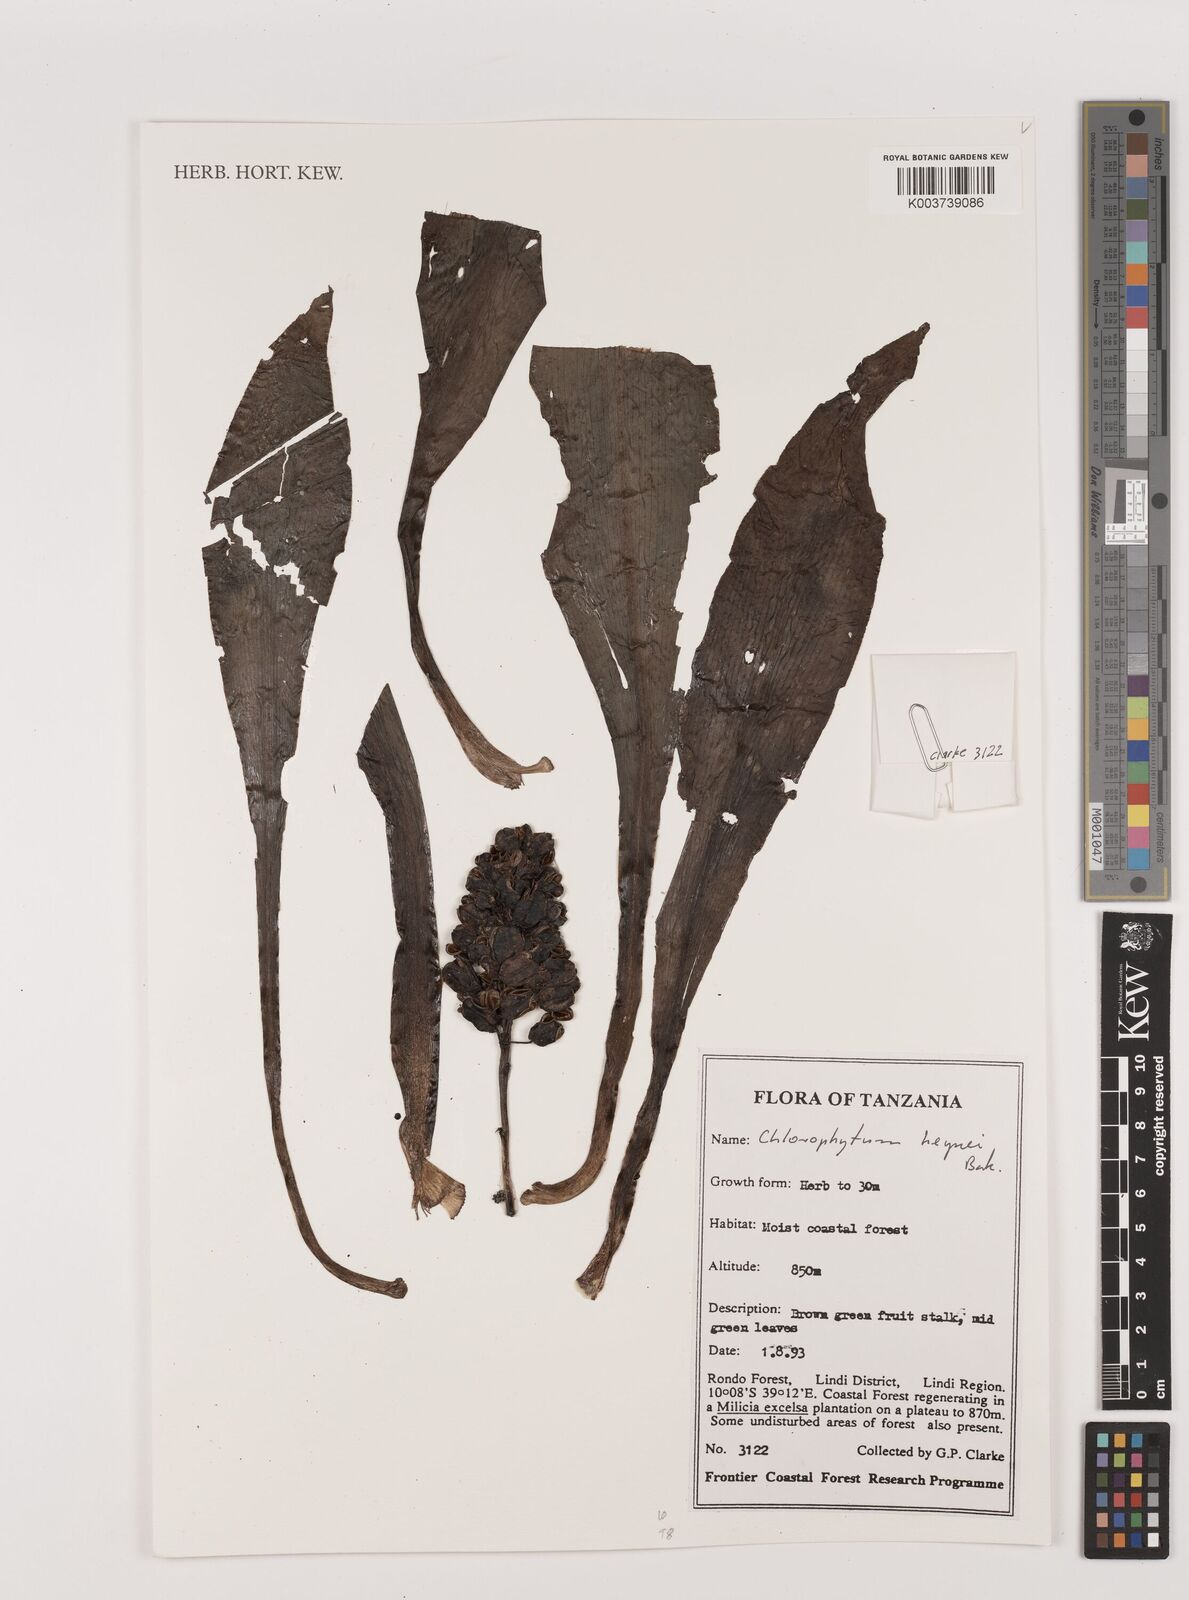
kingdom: Plantae
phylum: Tracheophyta
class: Liliopsida
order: Asparagales
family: Asparagaceae
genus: Chlorophytum
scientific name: Chlorophytum heynei
